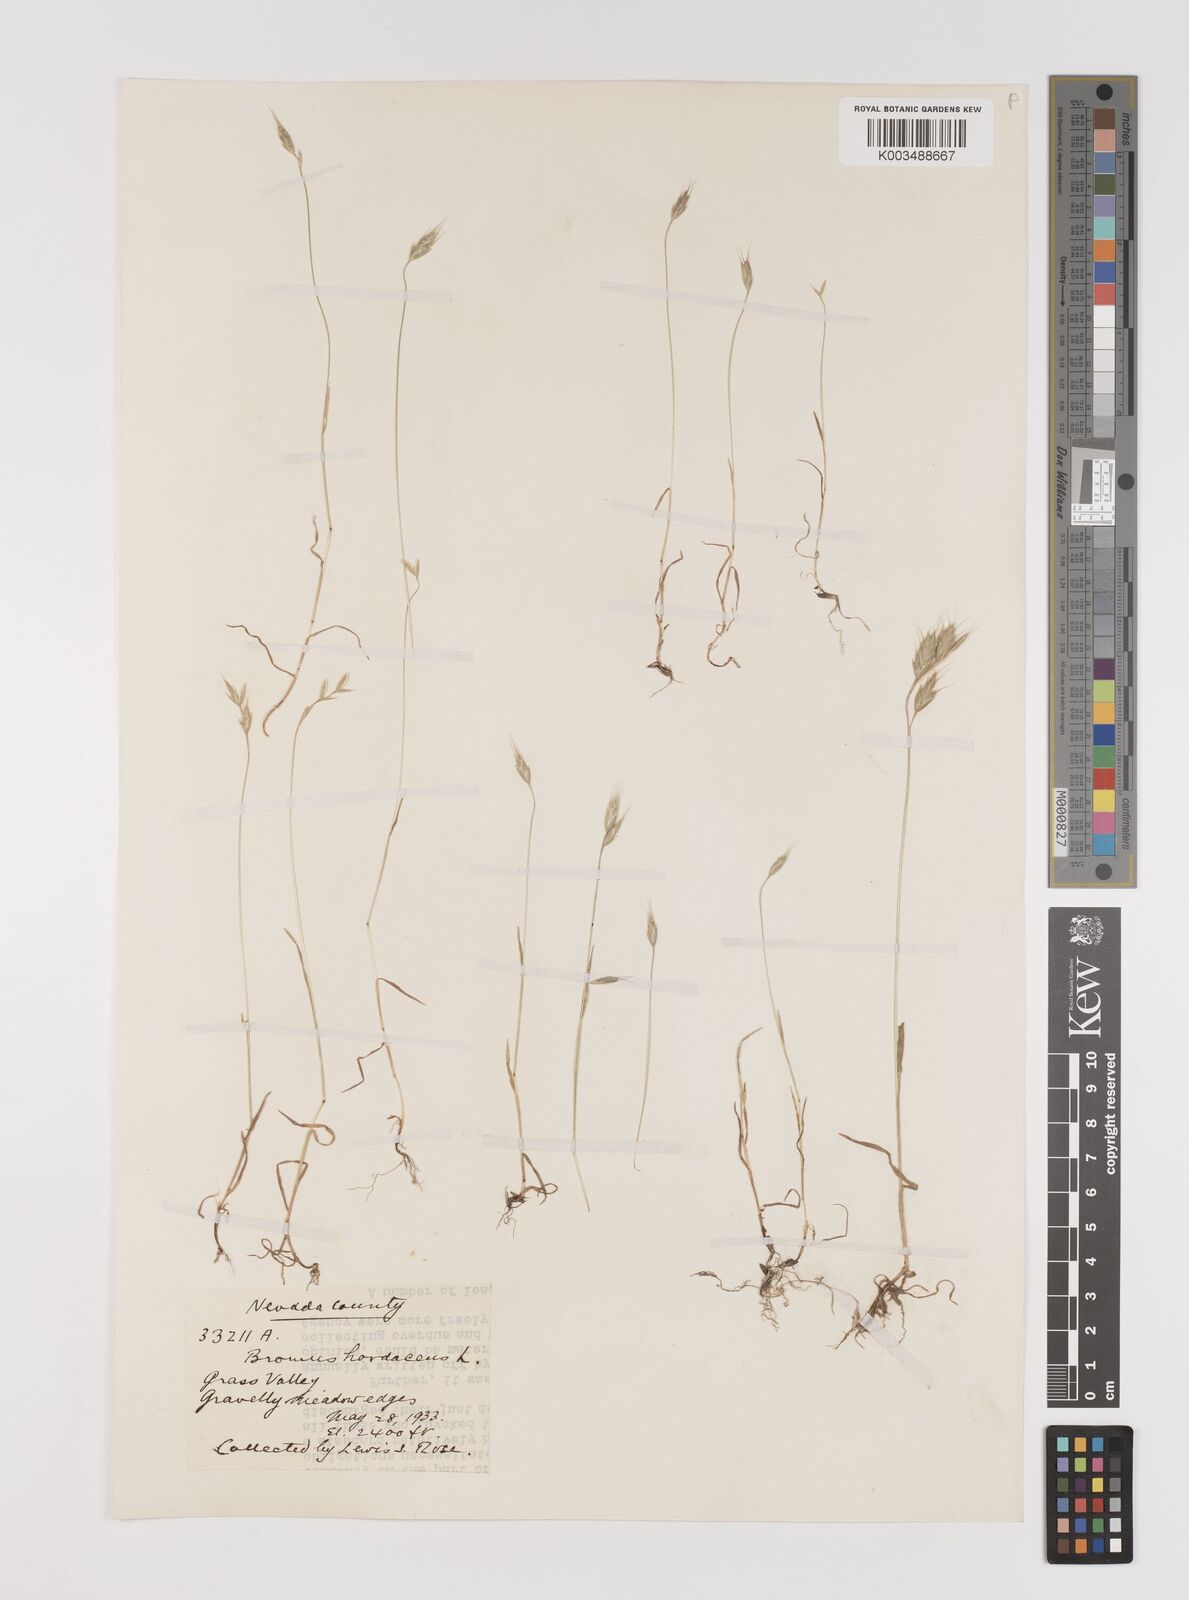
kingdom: Plantae
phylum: Tracheophyta
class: Liliopsida
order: Poales
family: Poaceae
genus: Bromus
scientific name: Bromus hordeaceus
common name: Soft brome
